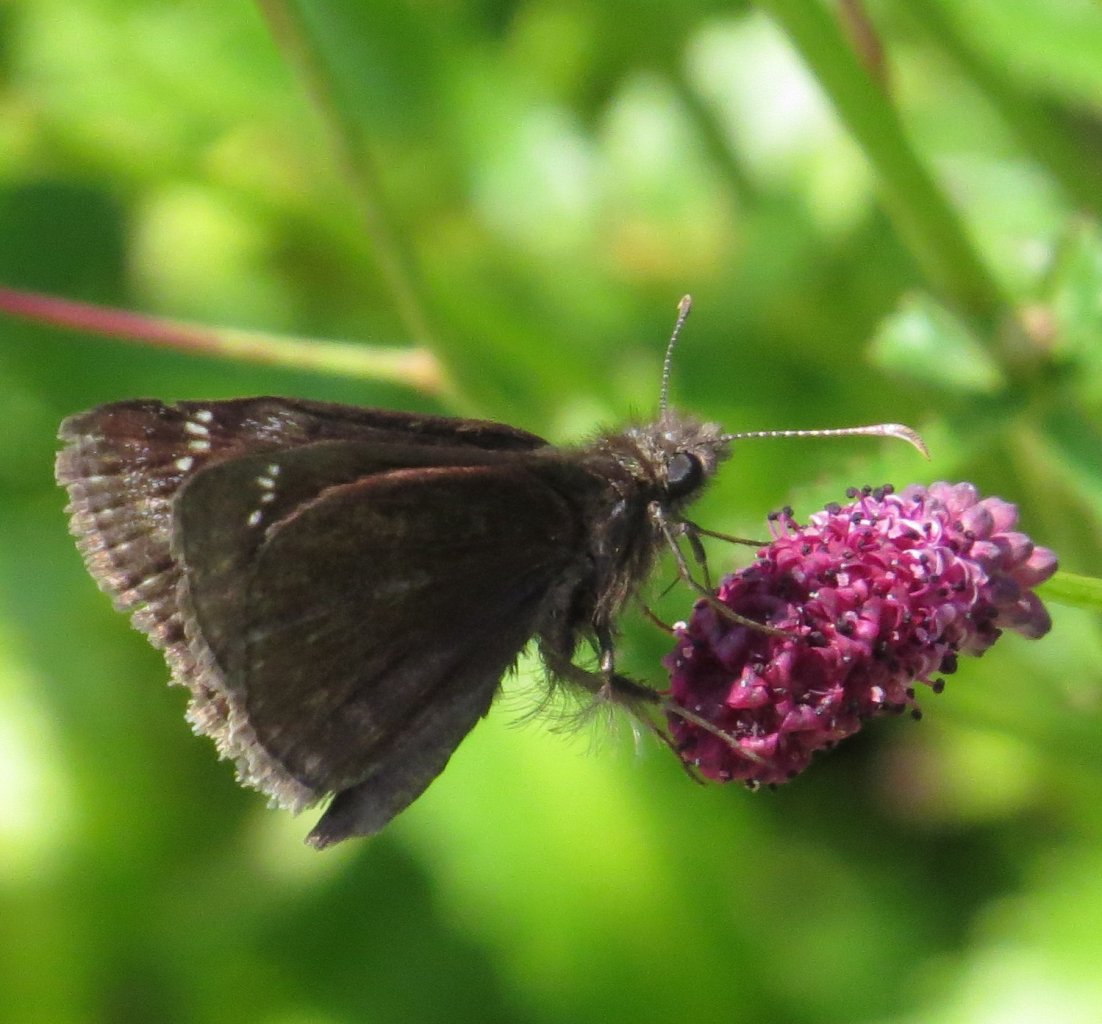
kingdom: Animalia
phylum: Arthropoda
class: Insecta
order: Lepidoptera
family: Hesperiidae
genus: Erynnis
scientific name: Erynnis
